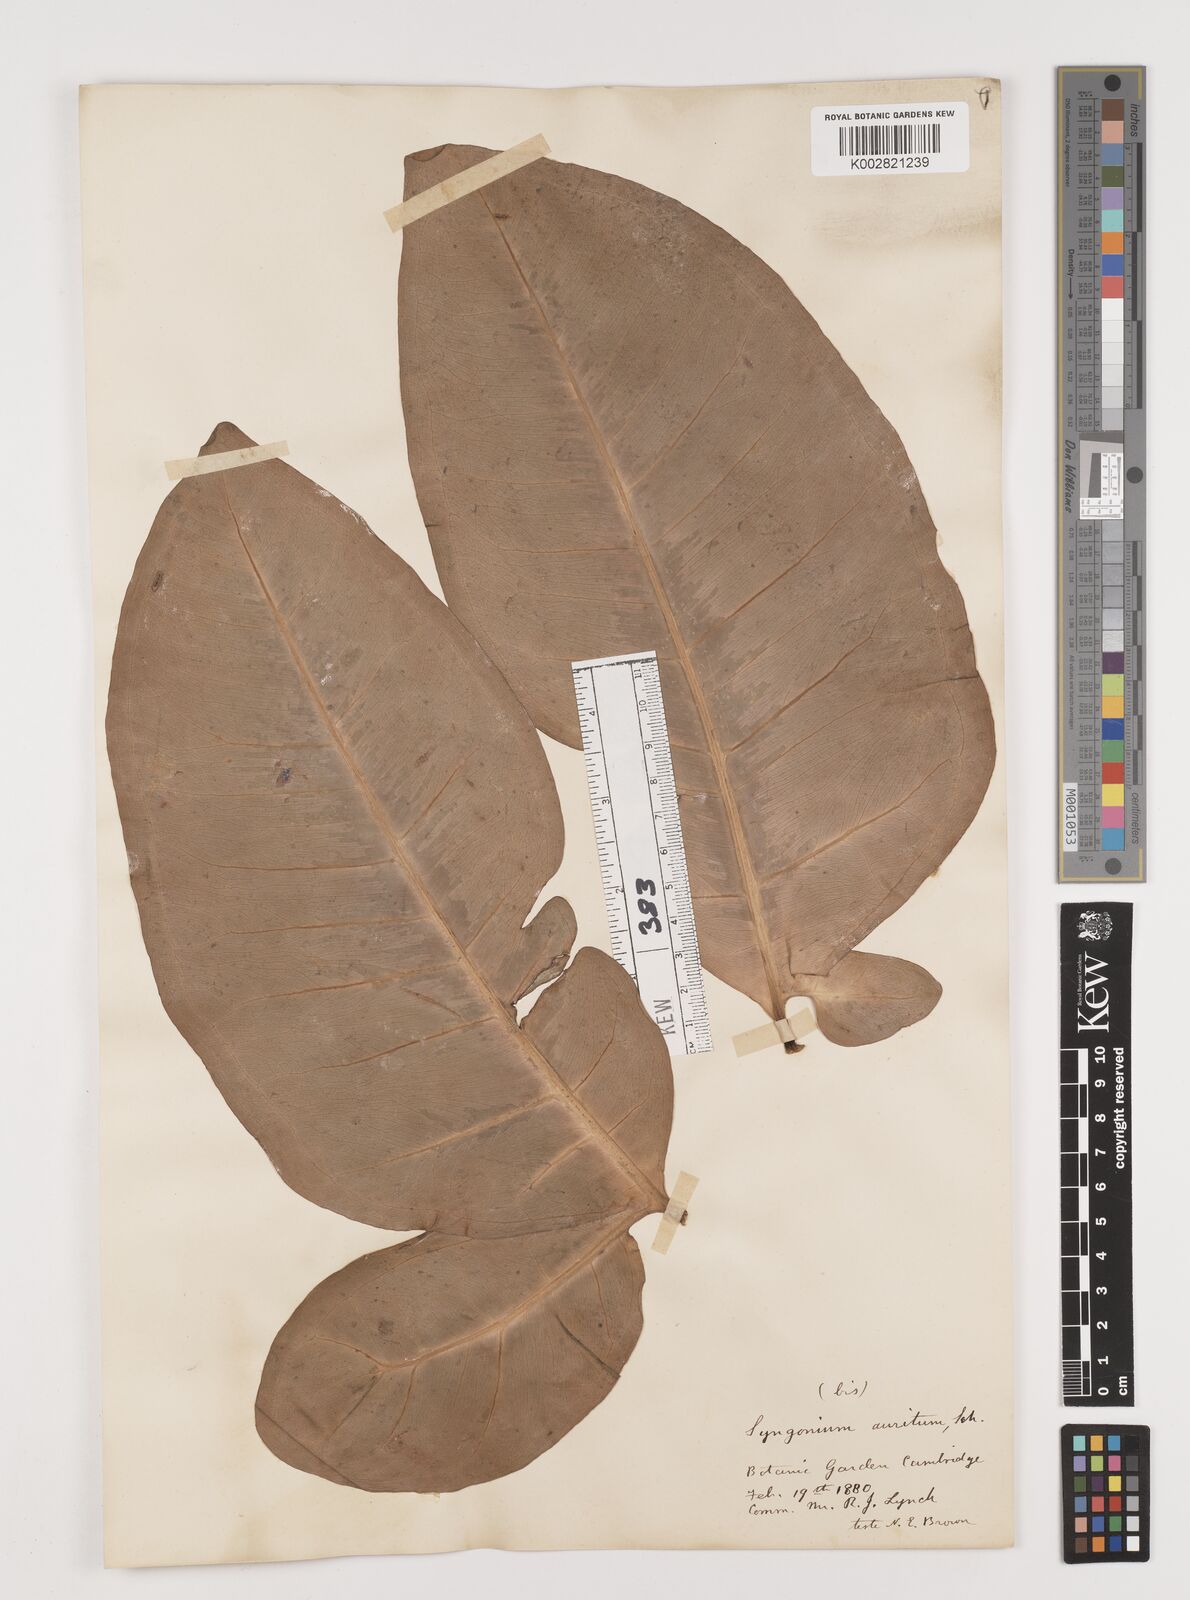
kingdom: Plantae
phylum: Tracheophyta
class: Liliopsida
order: Alismatales
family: Araceae
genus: Syngonium
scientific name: Syngonium auritum
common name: Five-fingers
